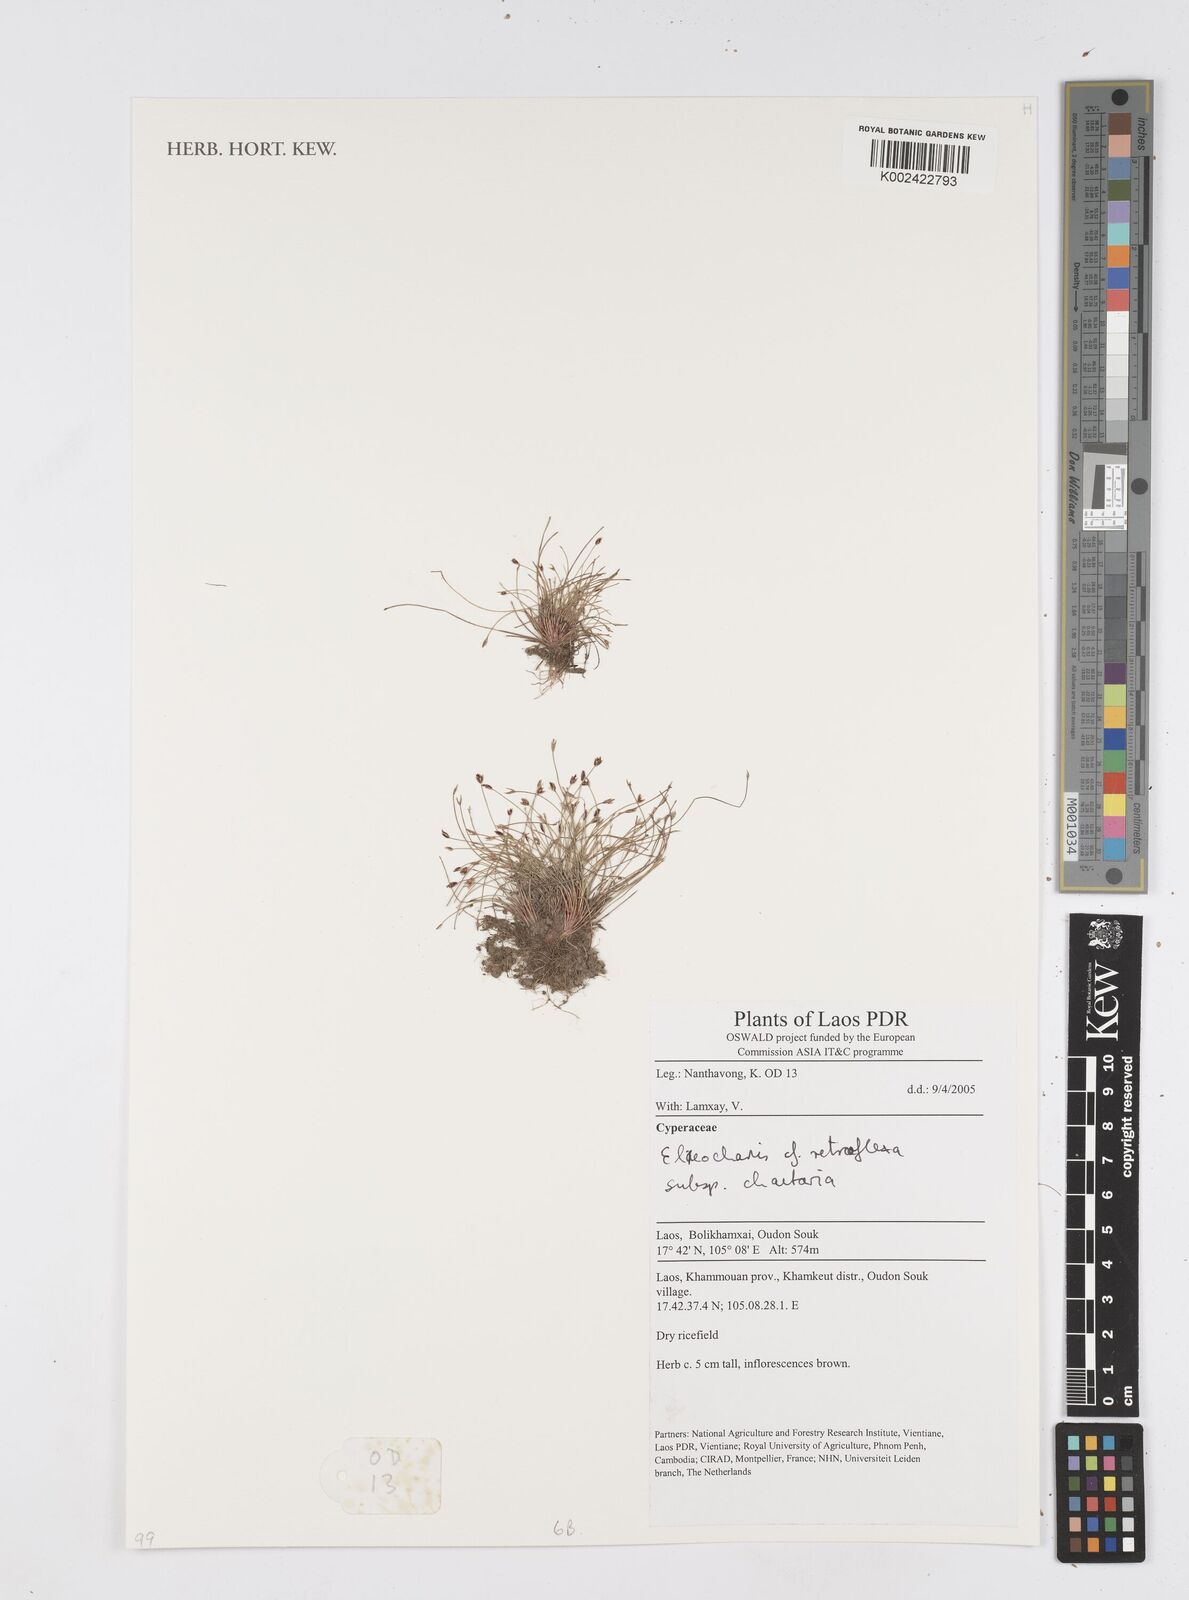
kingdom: Plantae
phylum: Tracheophyta
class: Liliopsida
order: Poales
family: Cyperaceae
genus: Eleocharis
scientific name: Eleocharis retroflexa
